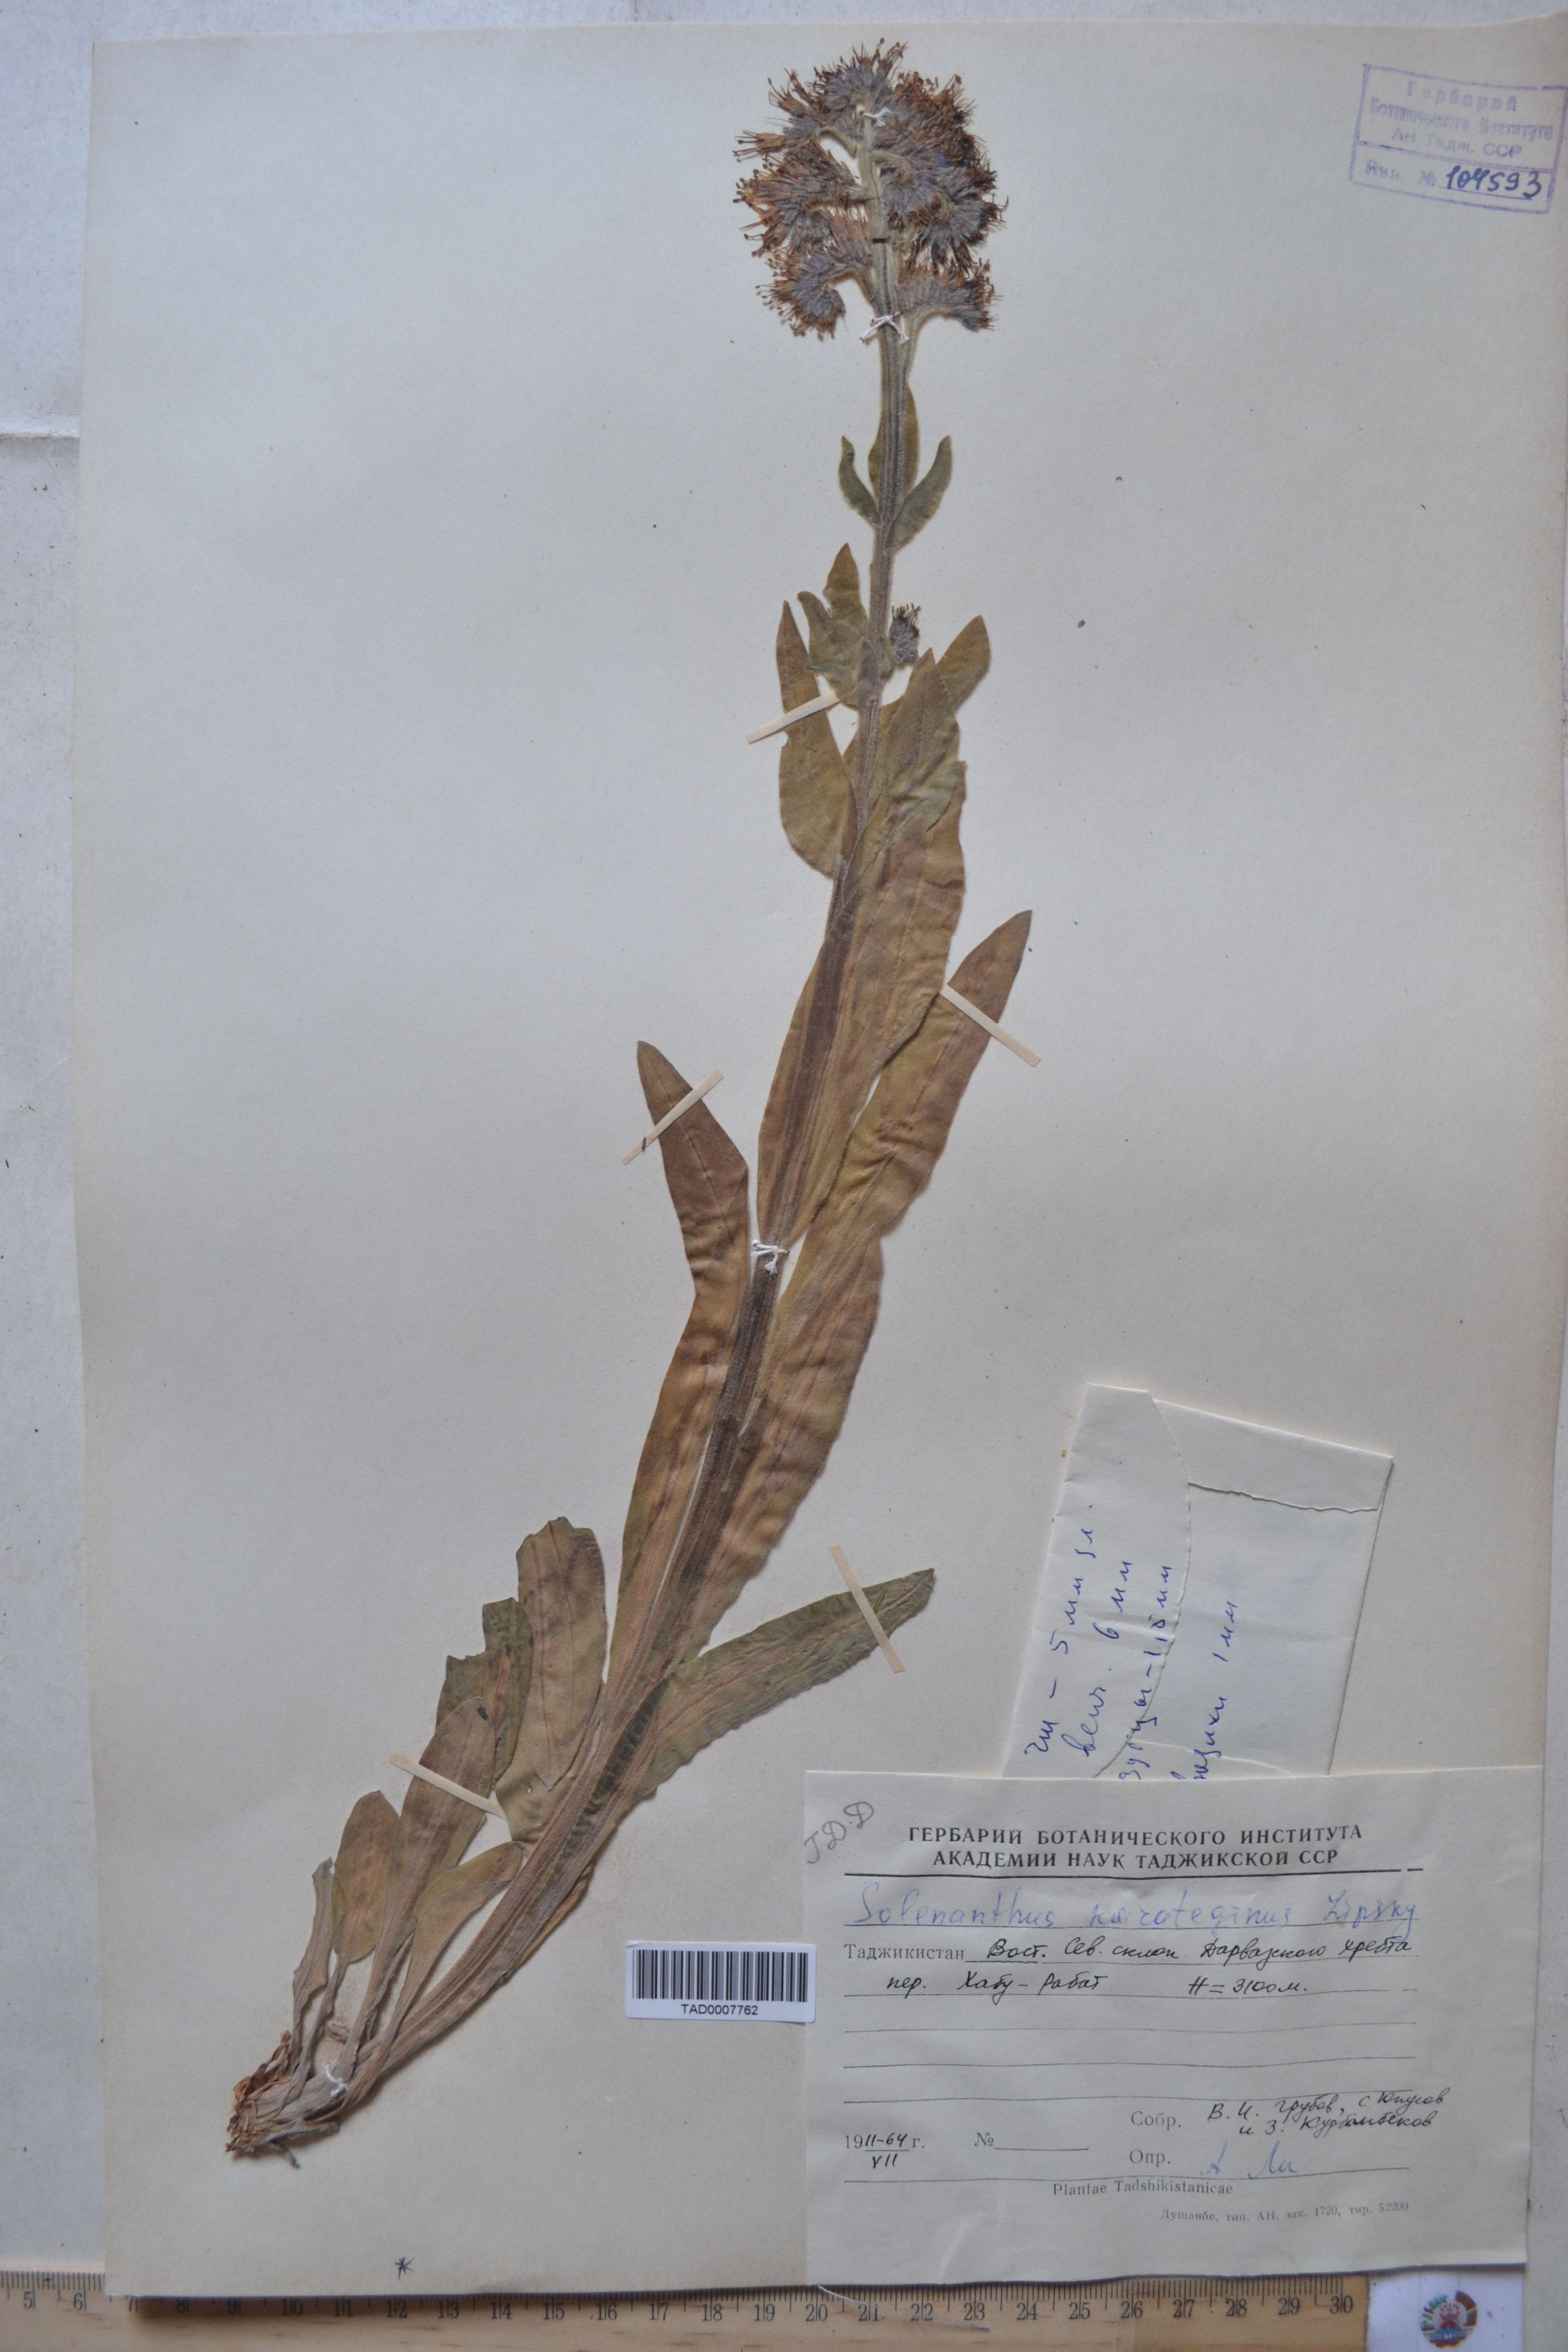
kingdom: Plantae
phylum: Tracheophyta
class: Magnoliopsida
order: Boraginales
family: Boraginaceae
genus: Solenanthus
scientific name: Solenanthus karateginus
